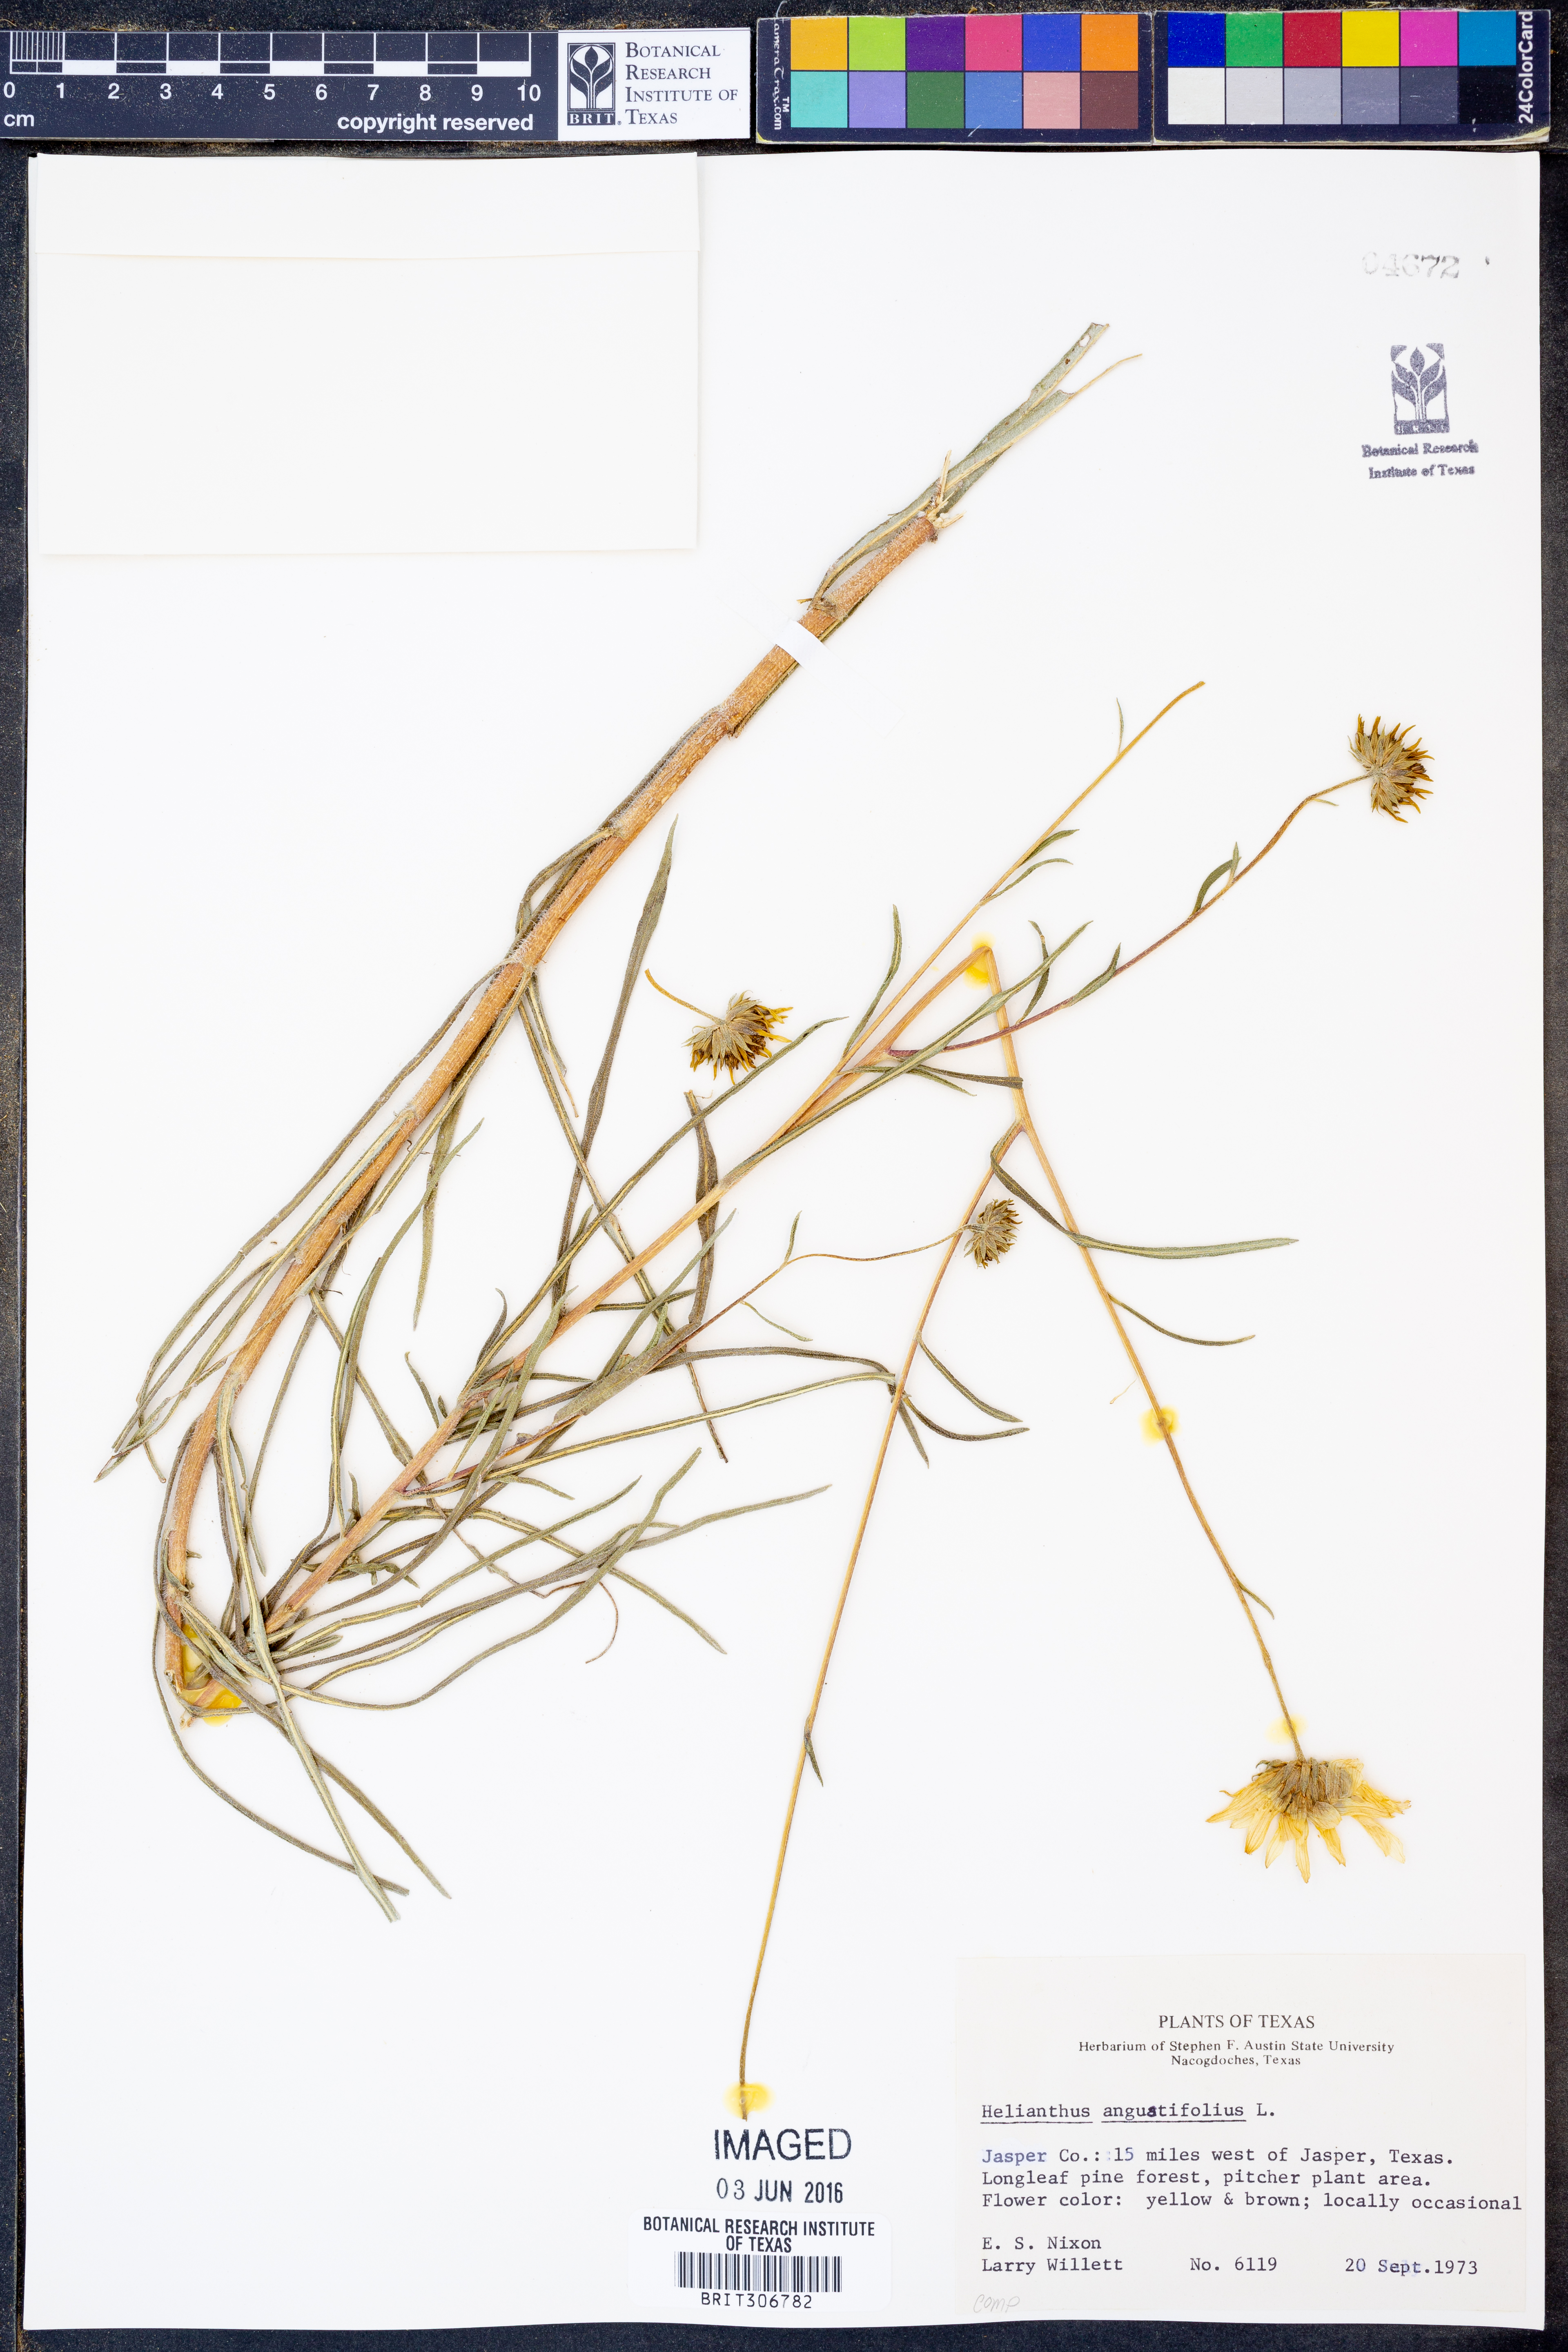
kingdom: Plantae
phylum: Tracheophyta
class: Magnoliopsida
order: Asterales
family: Asteraceae
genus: Helianthus
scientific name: Helianthus angustifolius
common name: Swamp sunflower
